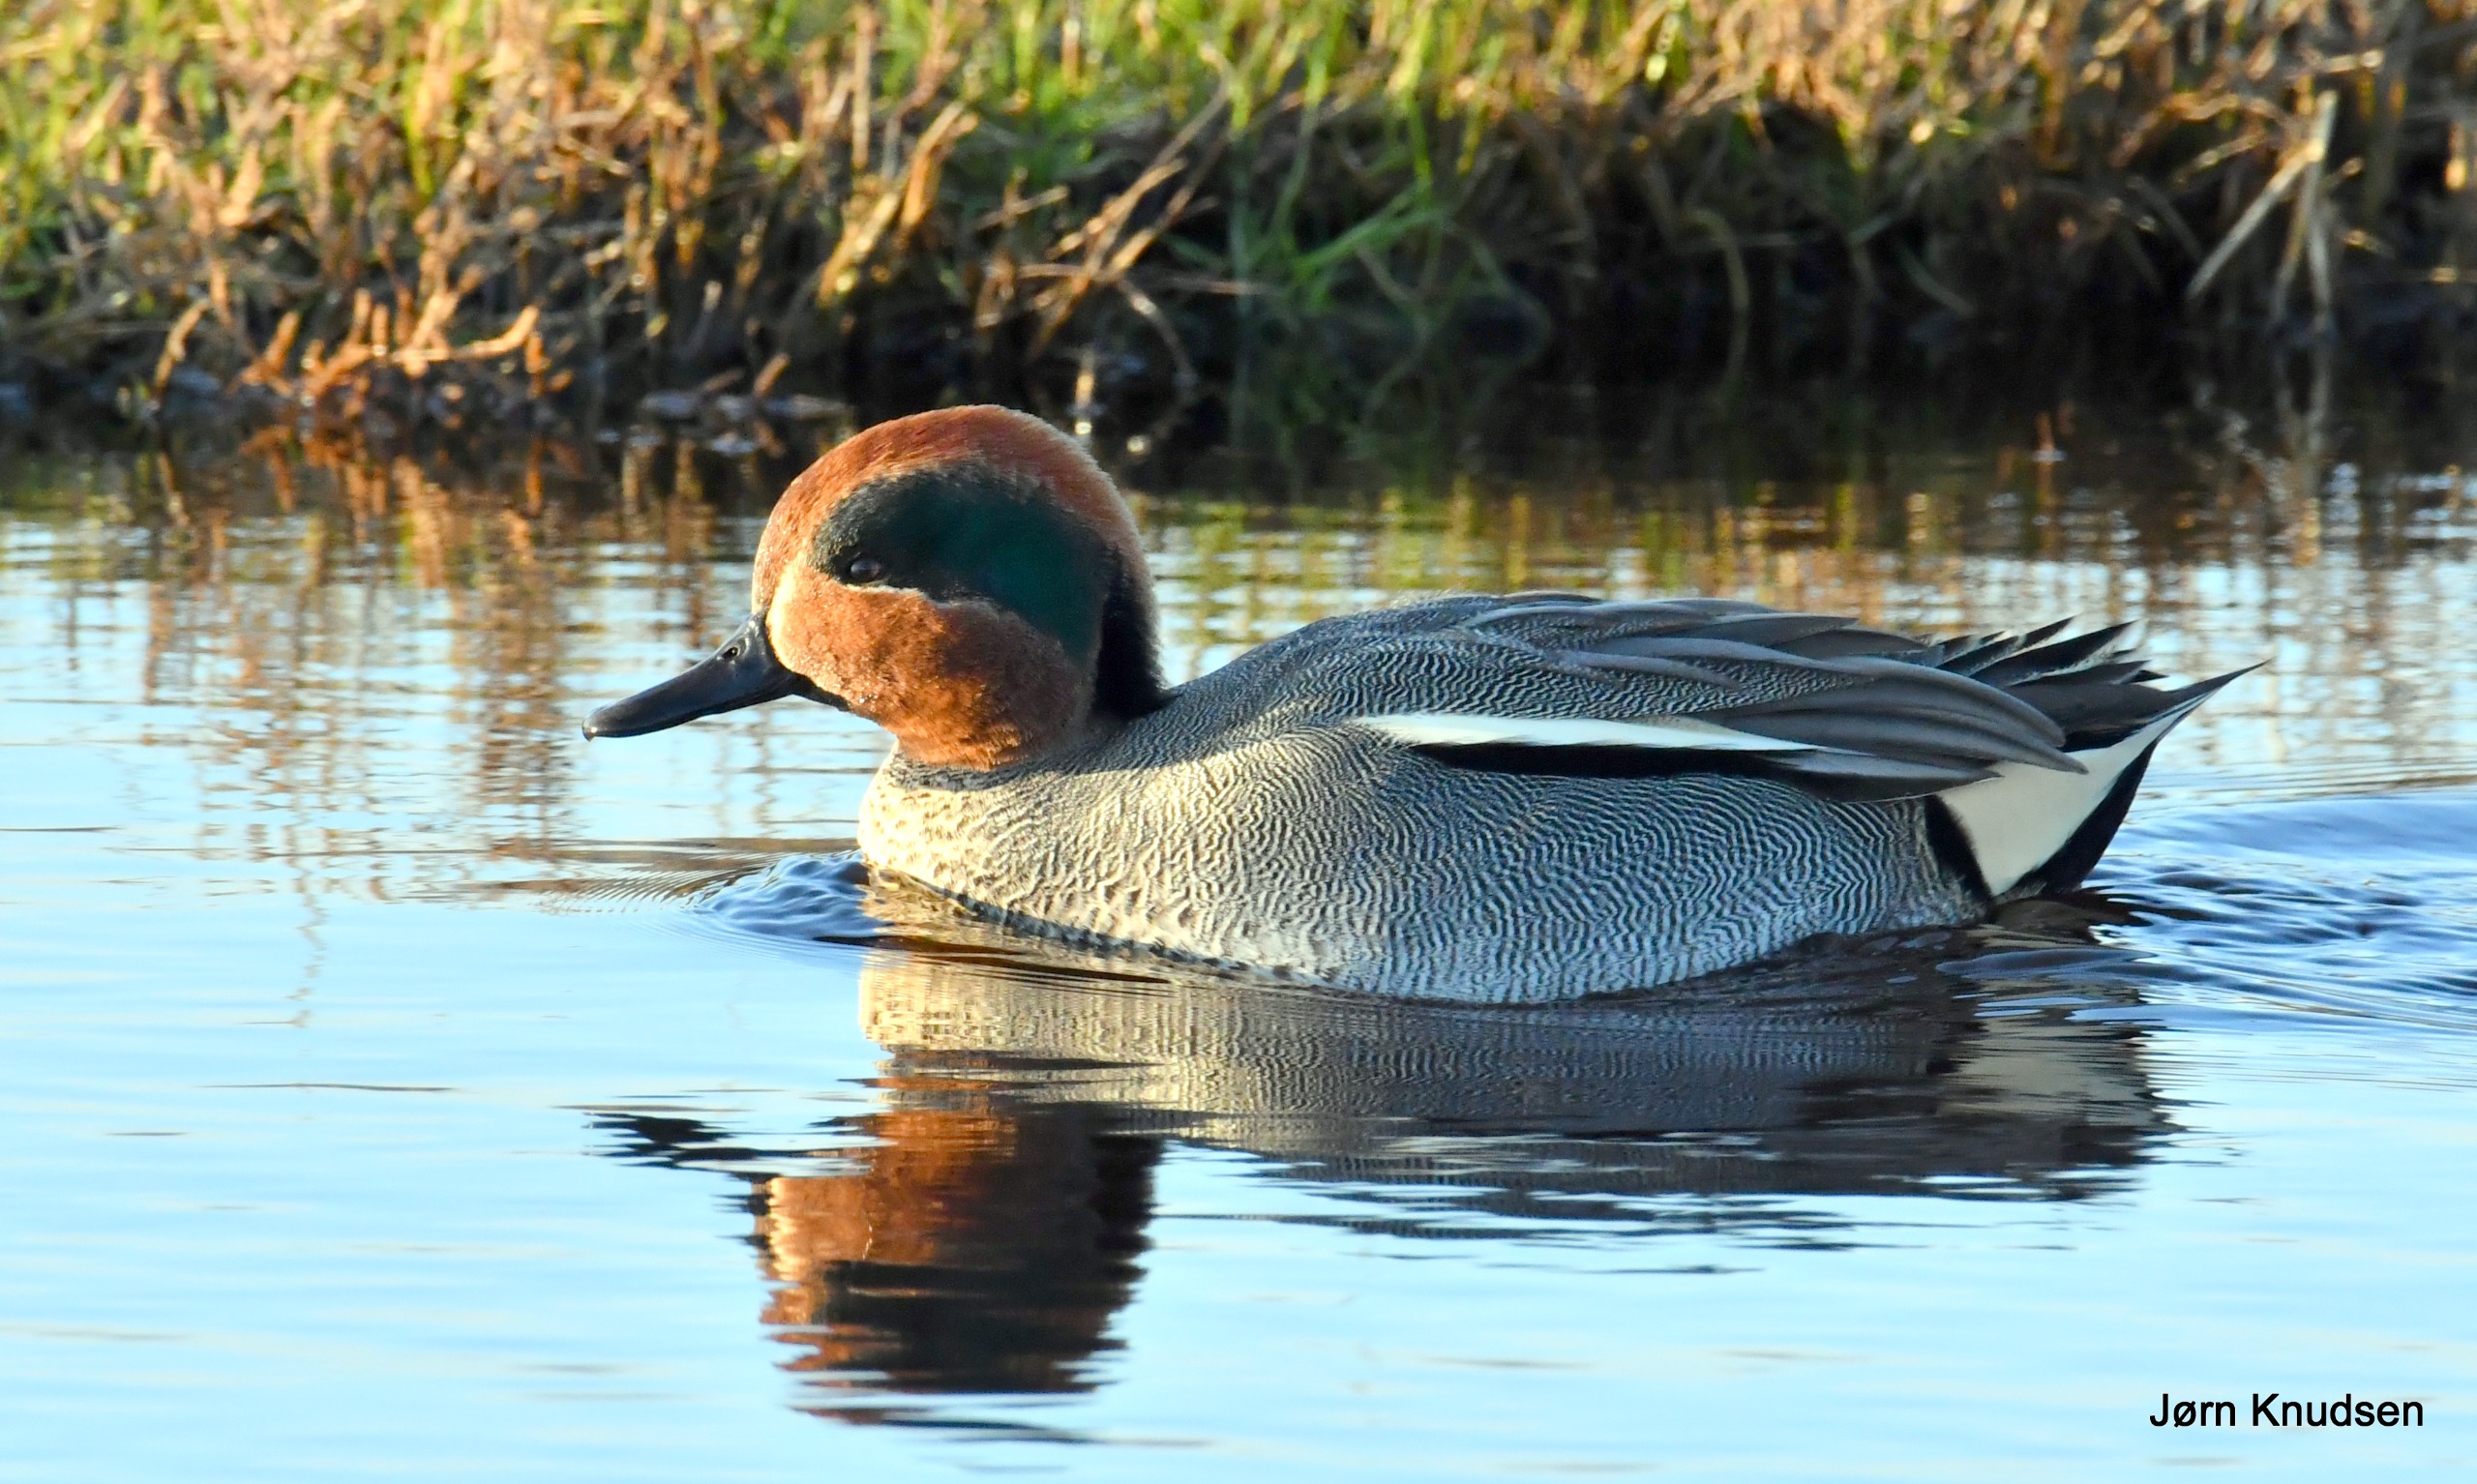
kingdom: Animalia
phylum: Chordata
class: Aves
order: Anseriformes
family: Anatidae
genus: Anas
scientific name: Anas crecca
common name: Krikand
